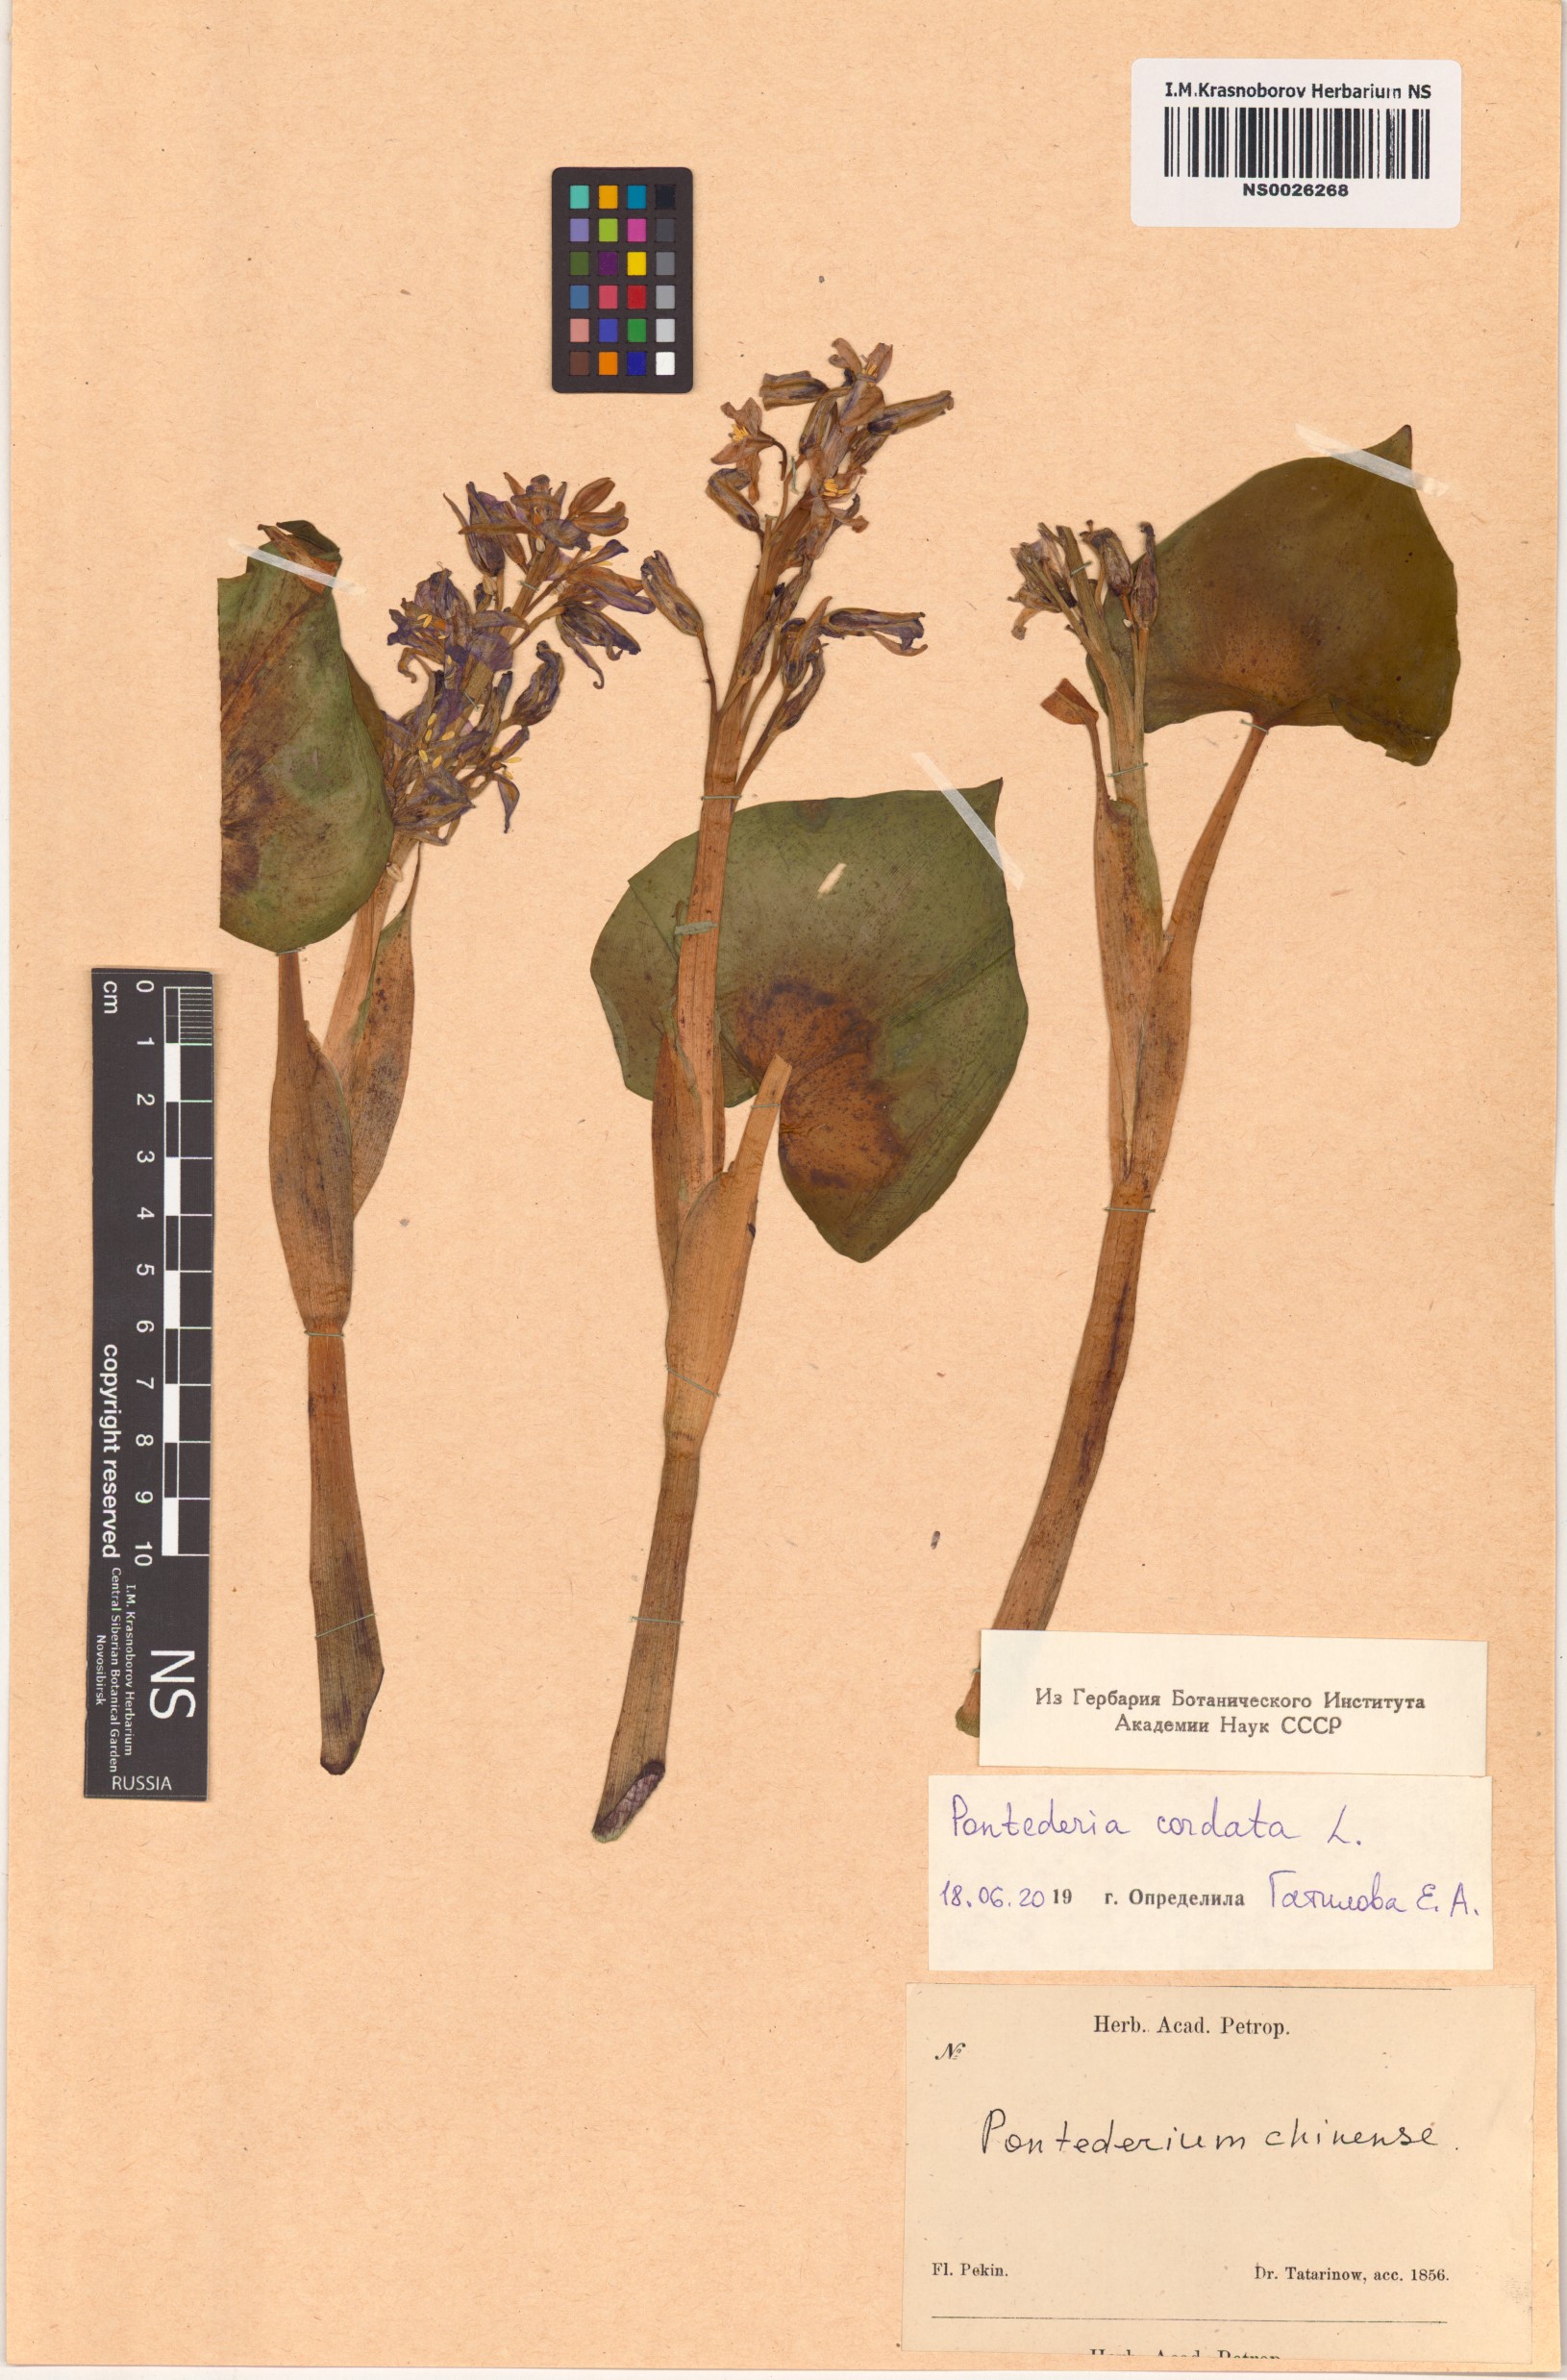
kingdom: Plantae
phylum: Tracheophyta
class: Liliopsida
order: Commelinales
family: Pontederiaceae
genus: Pontederia
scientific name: Pontederia cordata
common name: Pickerelweed
